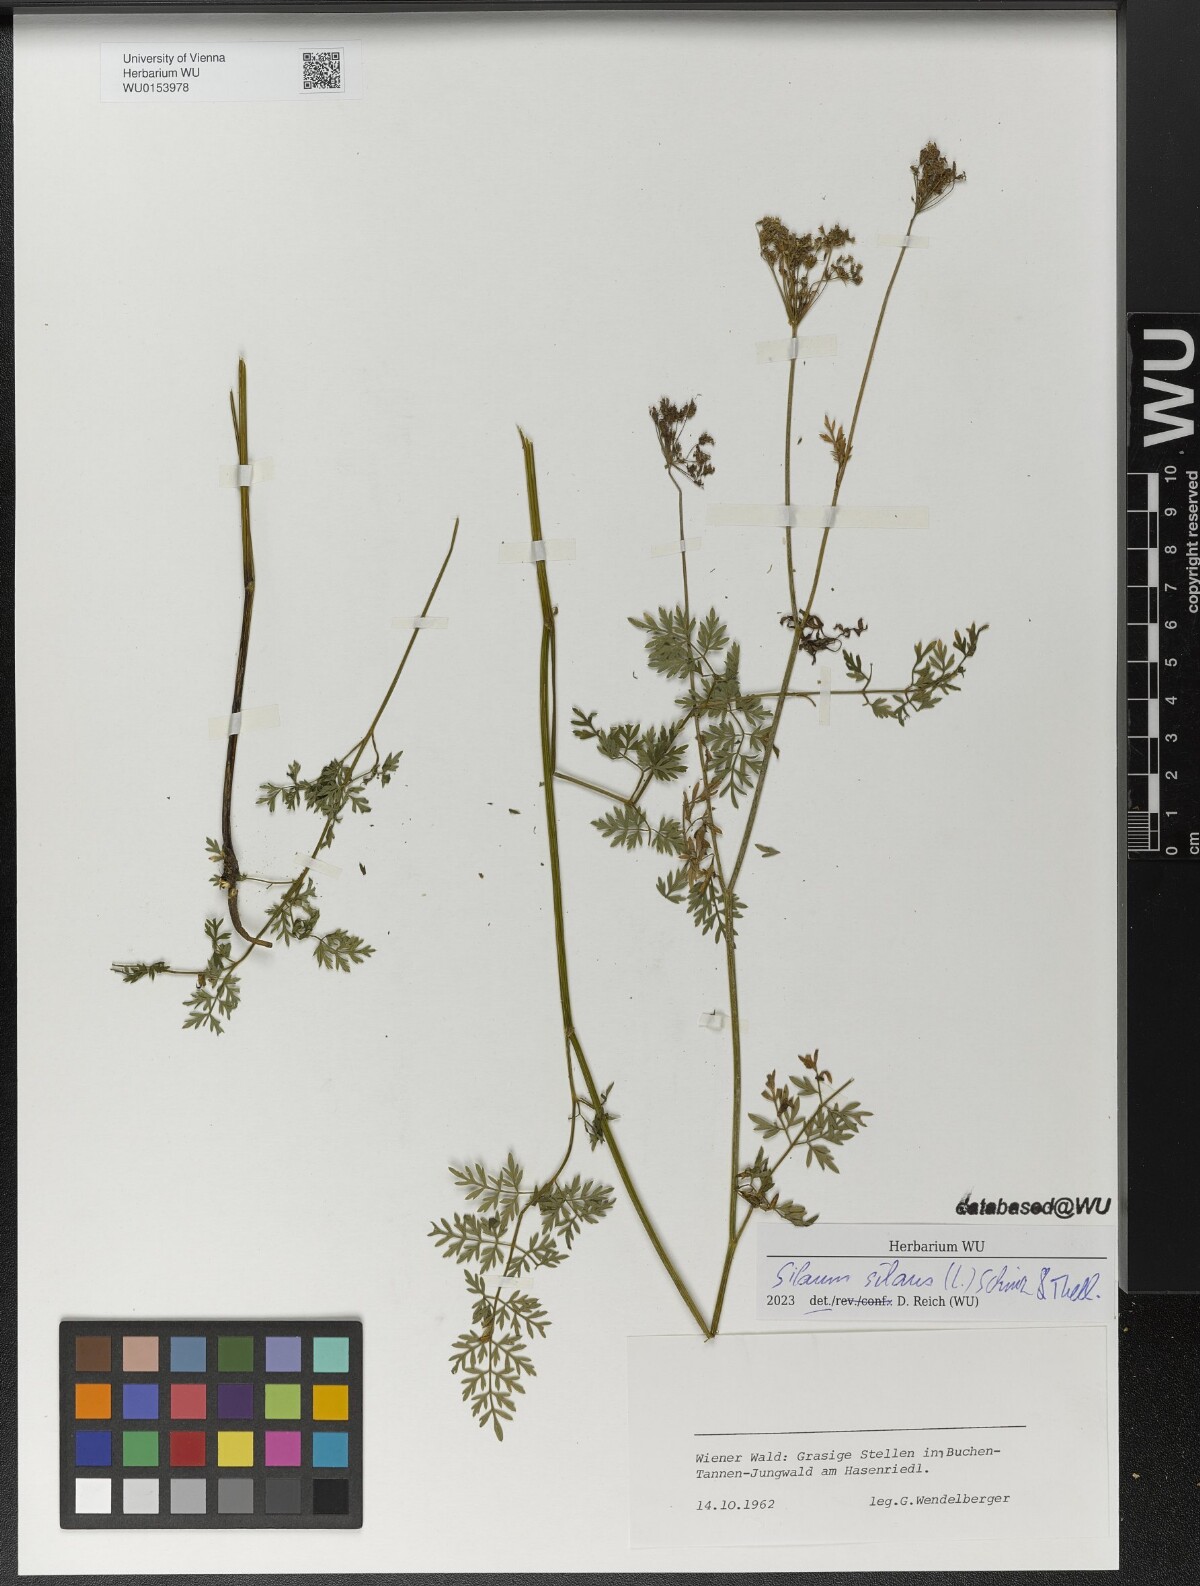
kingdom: Plantae
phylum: Tracheophyta
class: Magnoliopsida
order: Apiales
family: Apiaceae
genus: Silaum
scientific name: Silaum silaus
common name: Pepper-saxifrage
